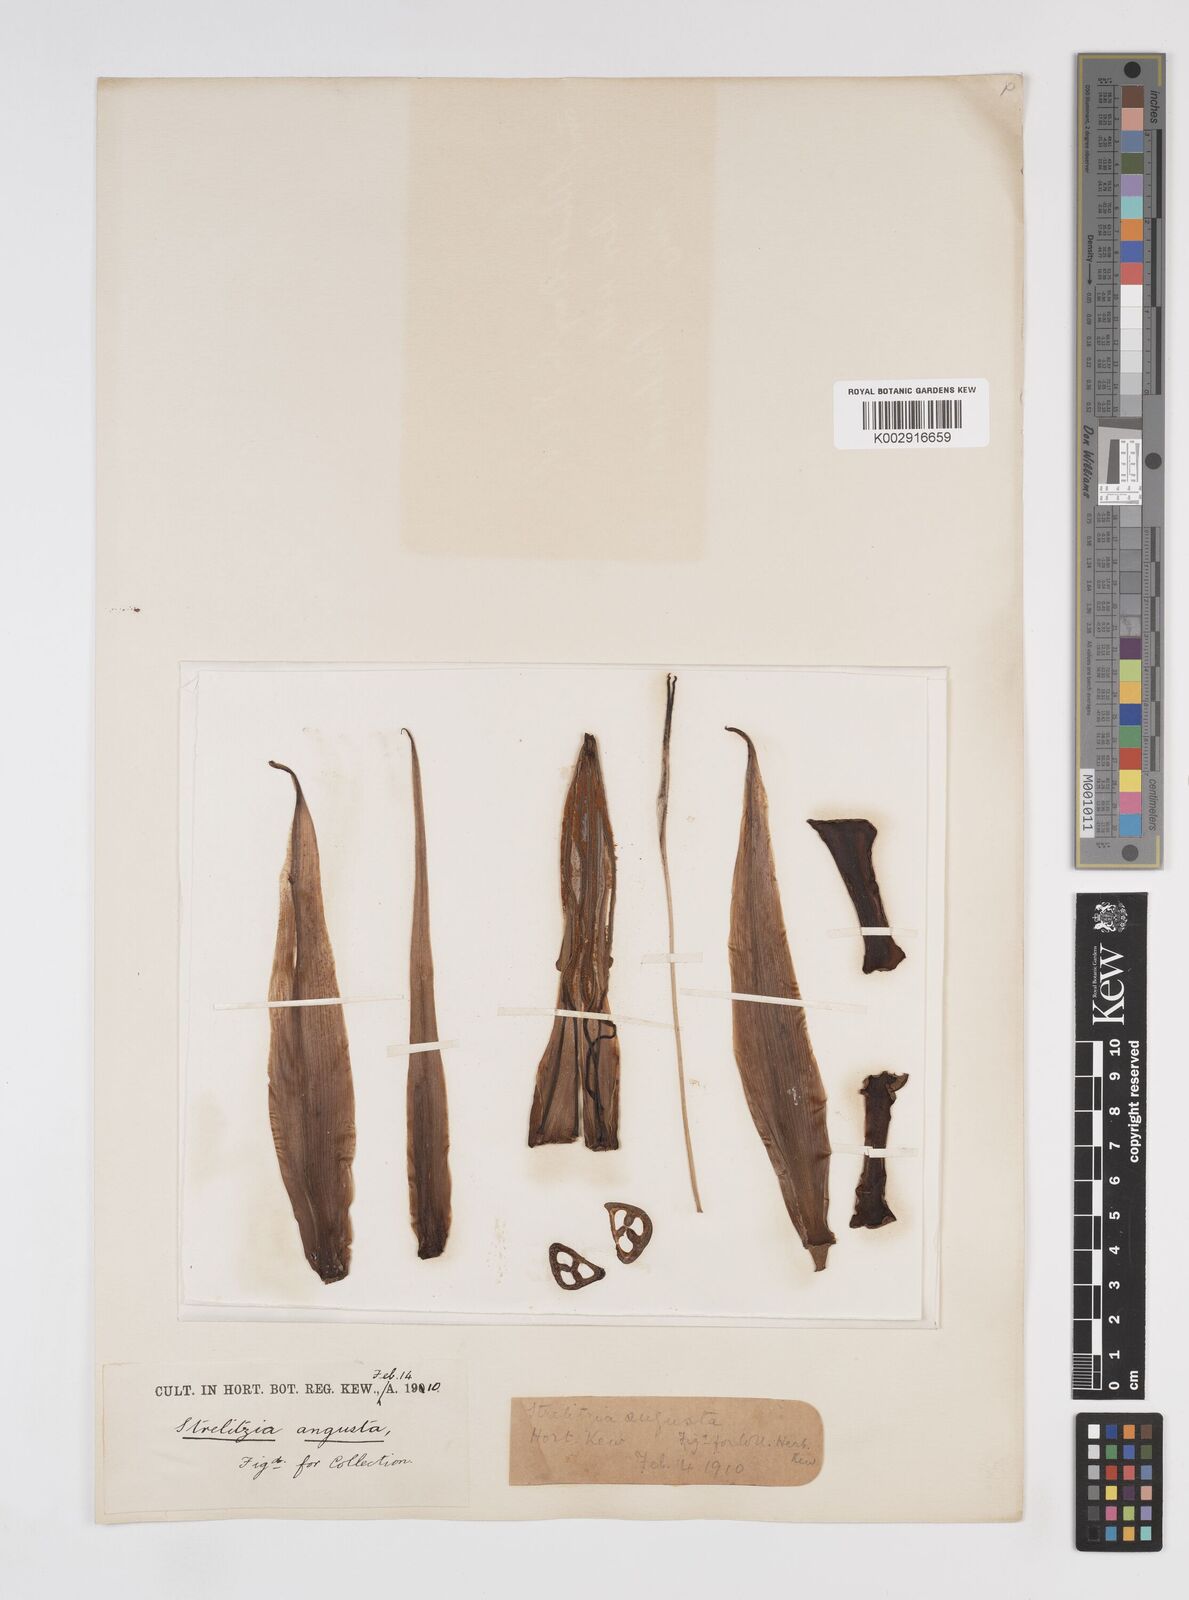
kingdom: Plantae
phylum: Tracheophyta
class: Liliopsida
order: Zingiberales
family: Strelitziaceae
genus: Strelitzia
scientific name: Strelitzia kewensis
